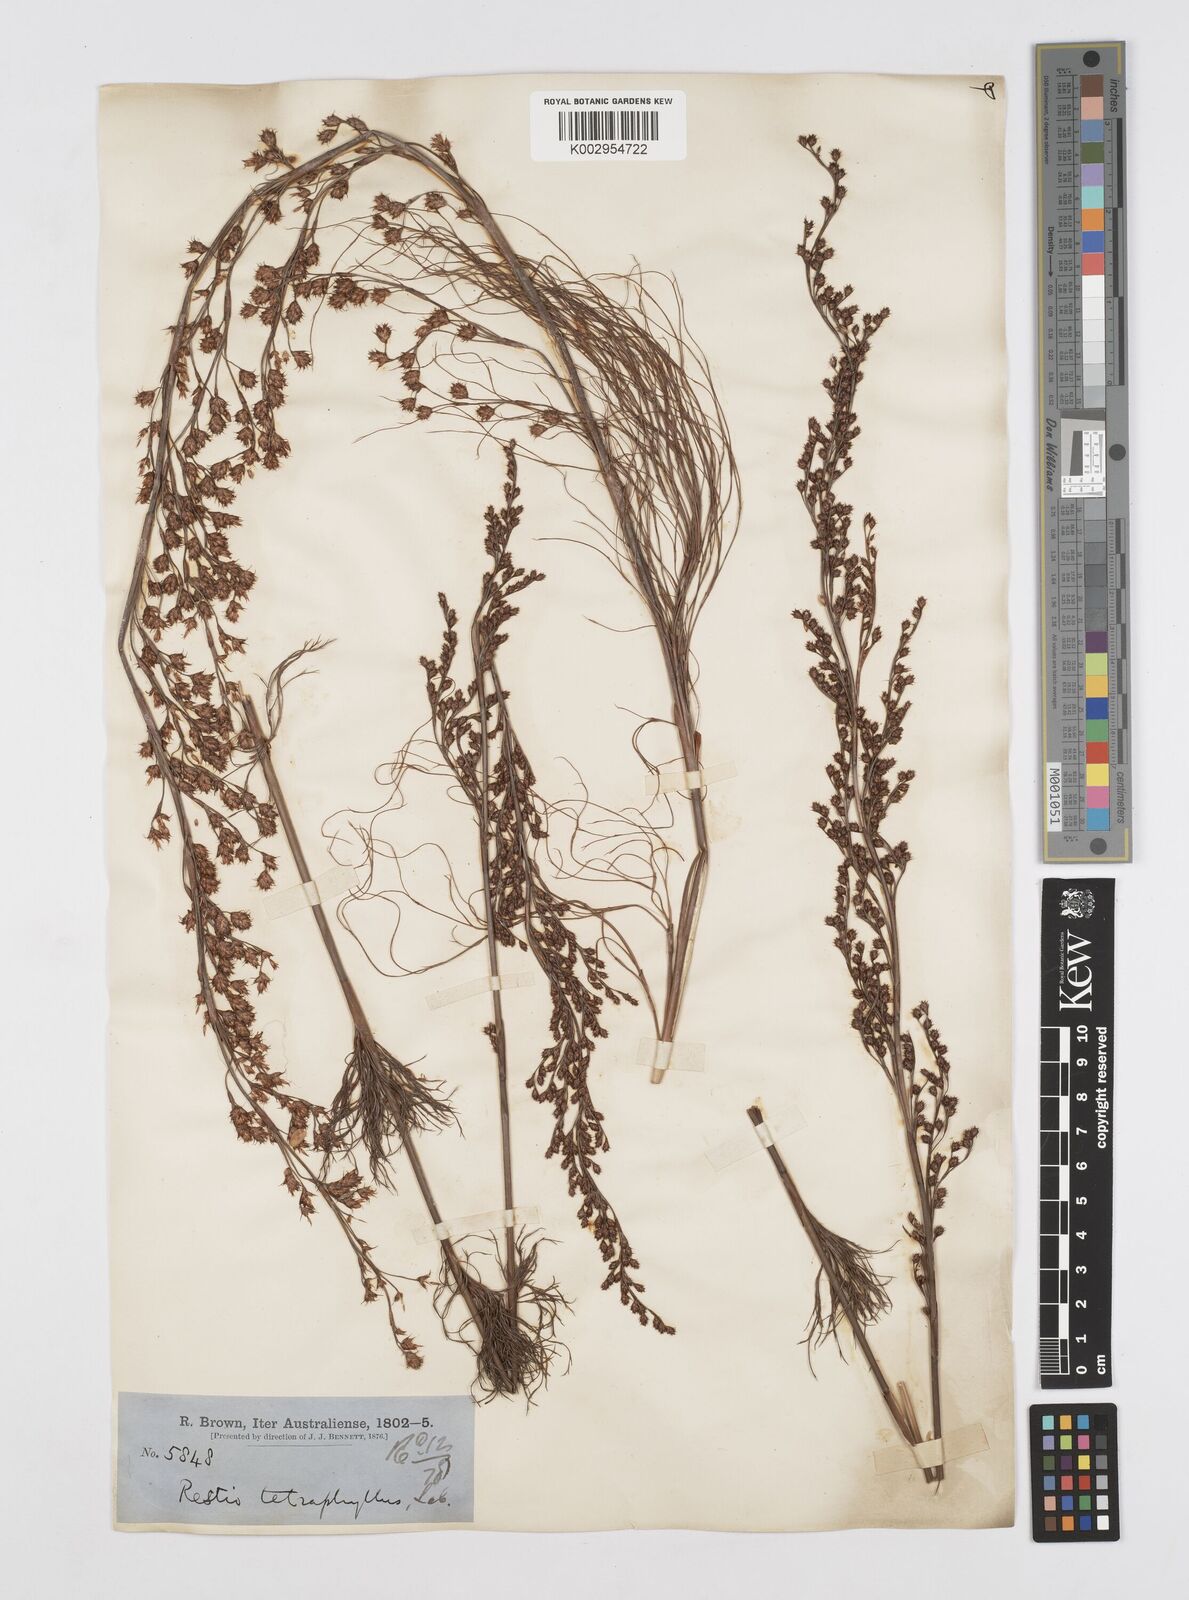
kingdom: Plantae
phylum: Tracheophyta
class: Liliopsida
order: Poales
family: Restionaceae
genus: Baloskion
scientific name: Baloskion tetraphyllum
